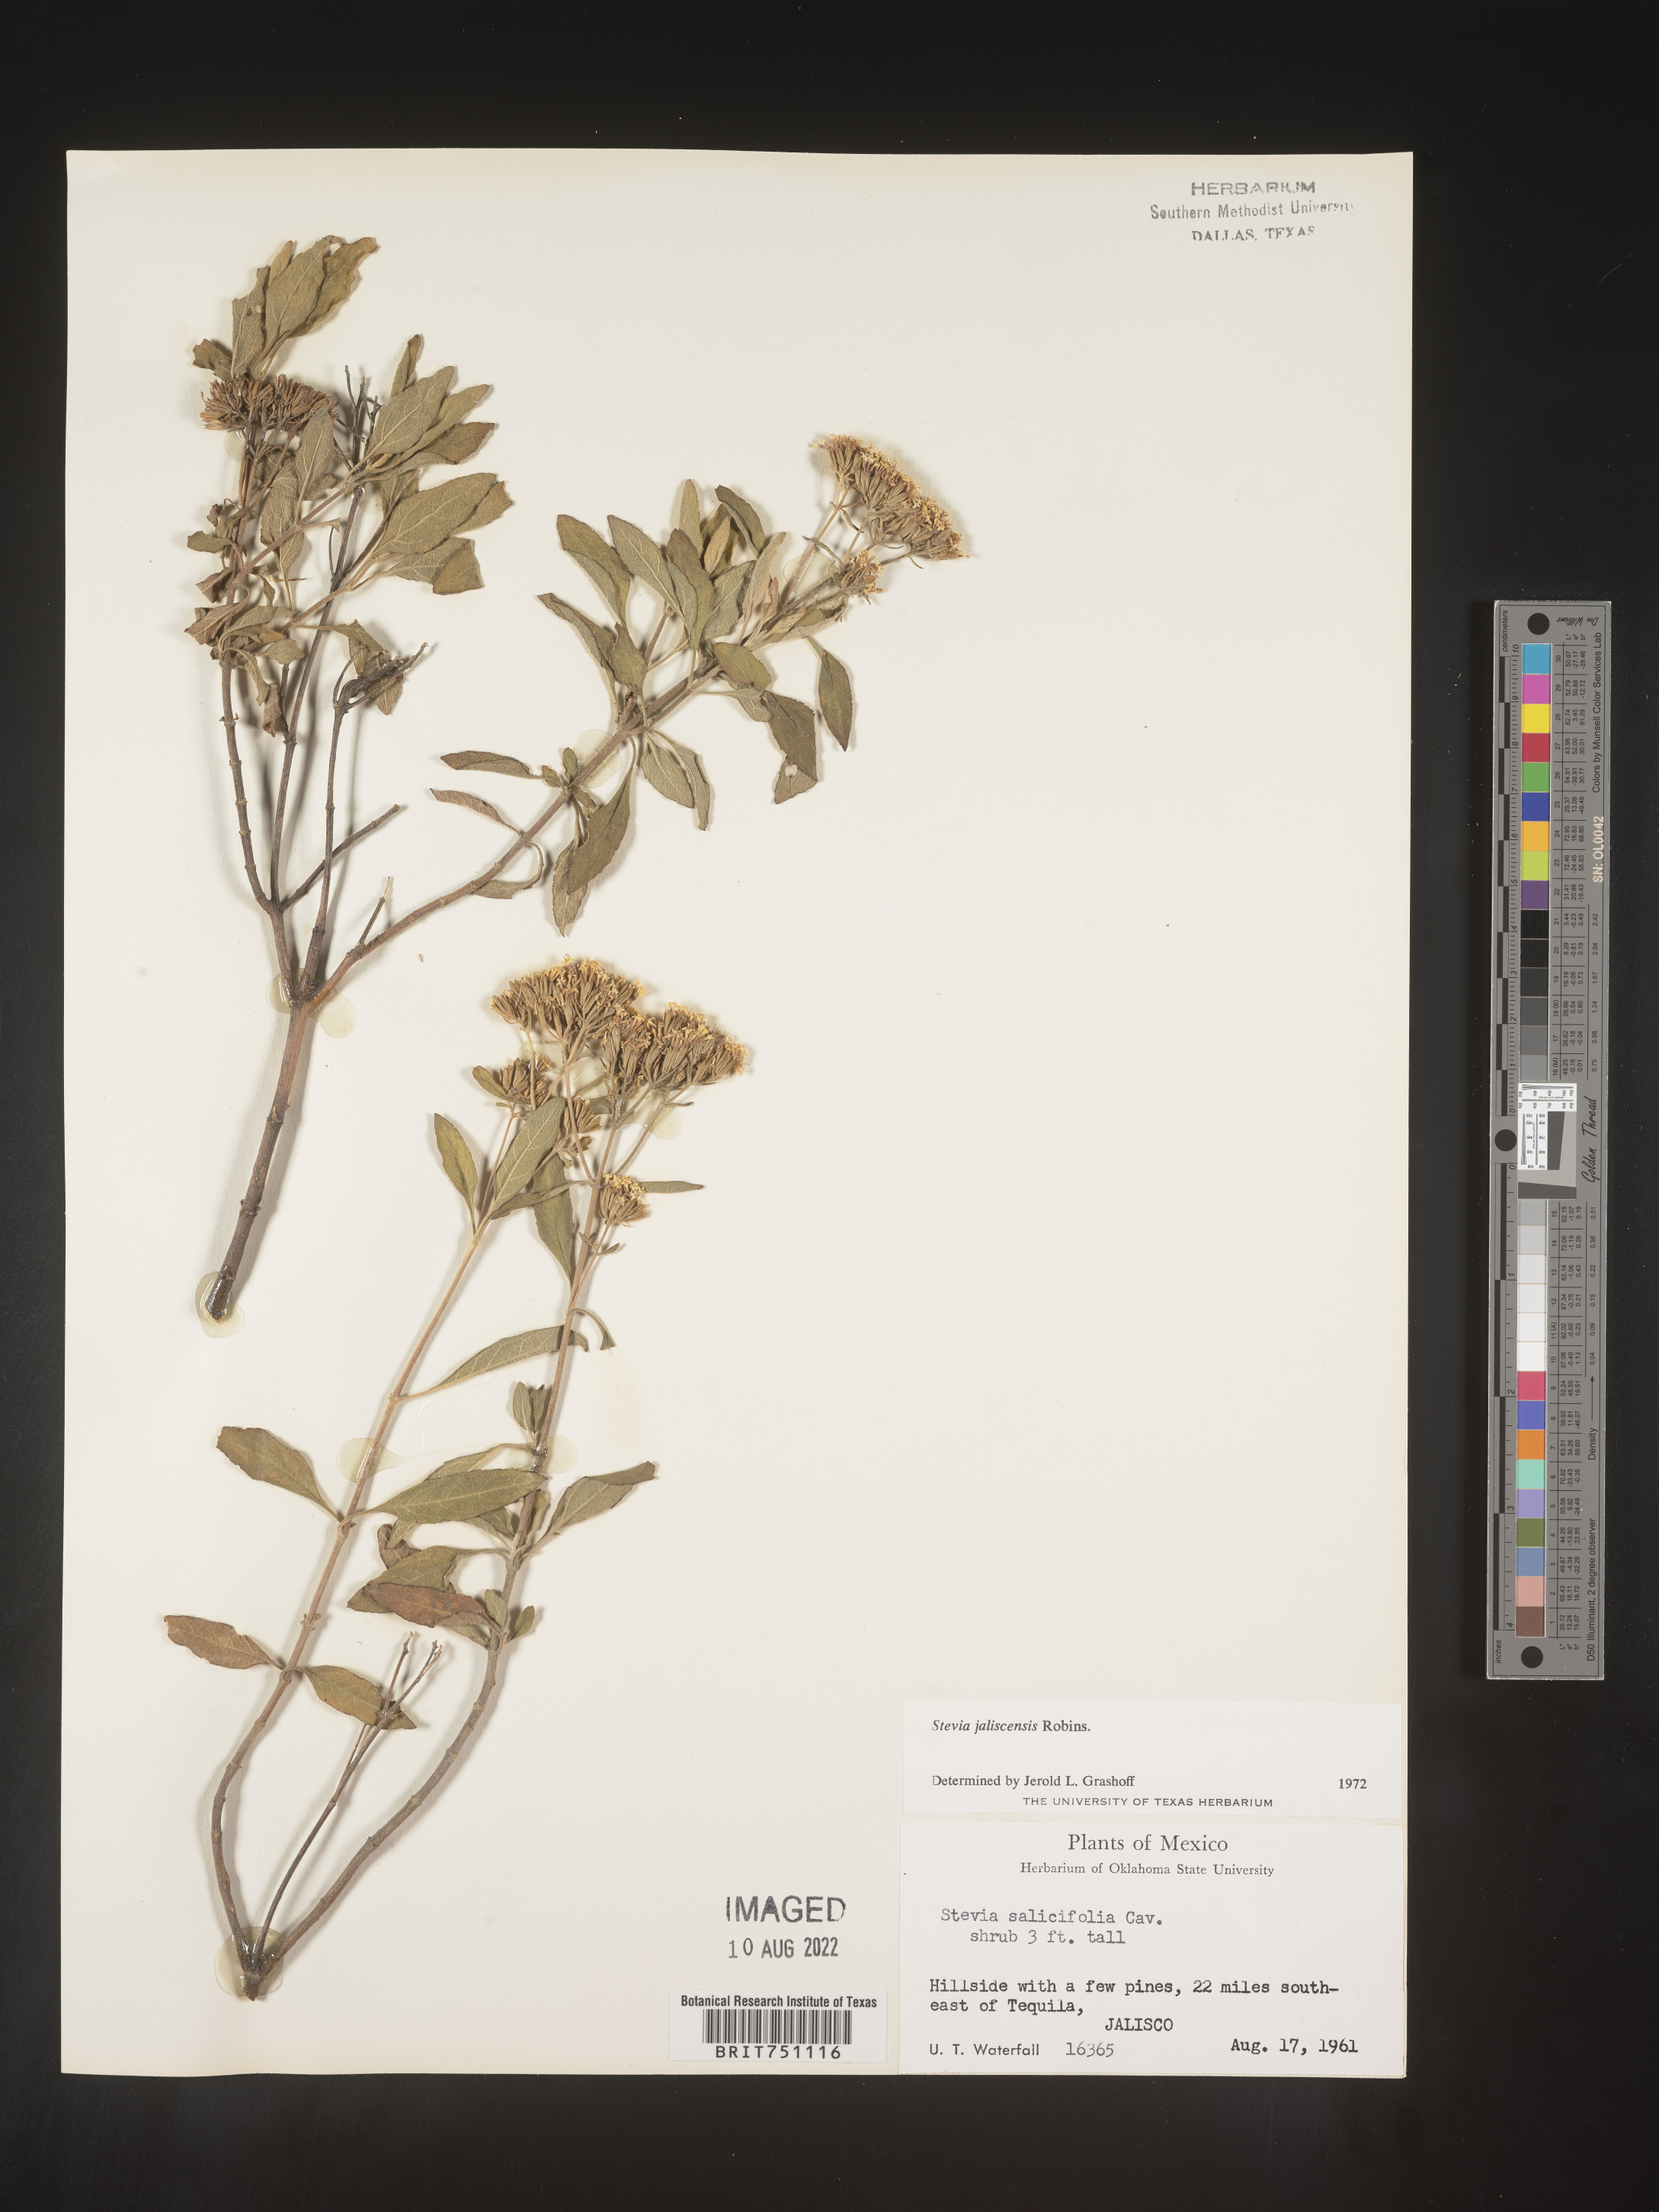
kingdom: Plantae
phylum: Tracheophyta
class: Magnoliopsida
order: Asterales
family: Asteraceae
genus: Stevia
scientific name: Stevia
